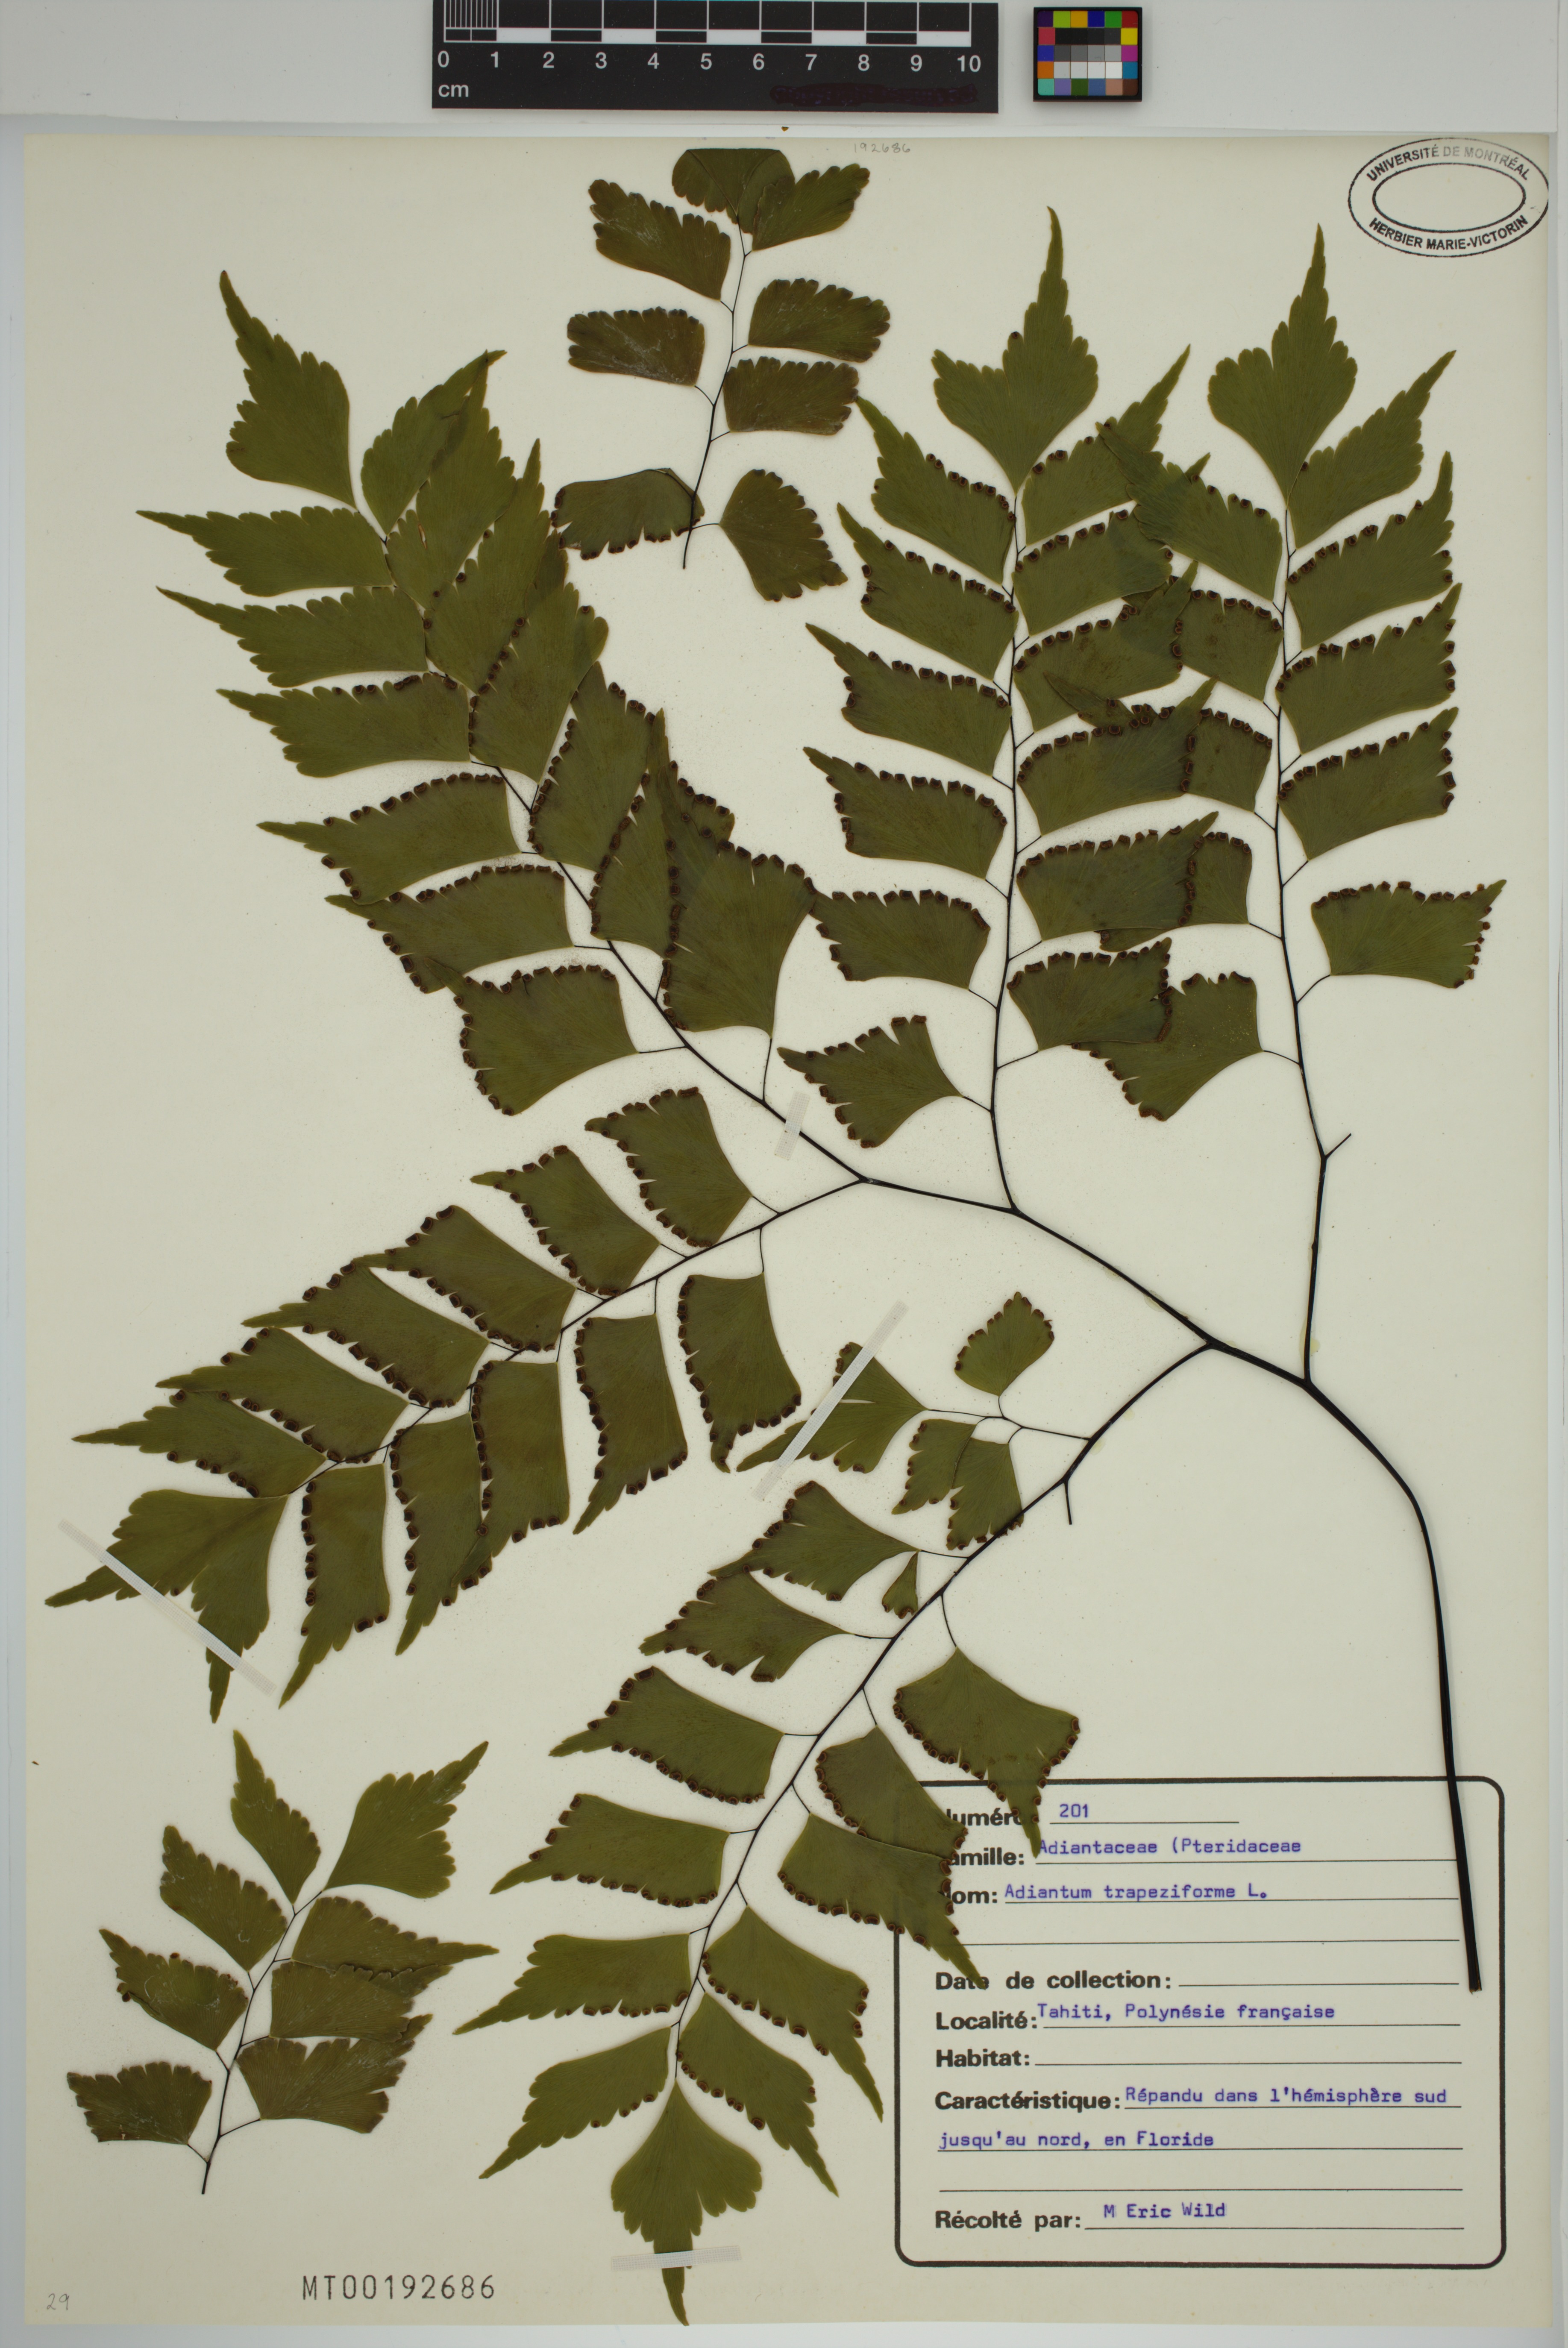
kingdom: Plantae
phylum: Tracheophyta
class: Polypodiopsida
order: Polypodiales
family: Pteridaceae
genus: Adiantum
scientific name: Adiantum trapeziforme
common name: Diamond maidenhair
